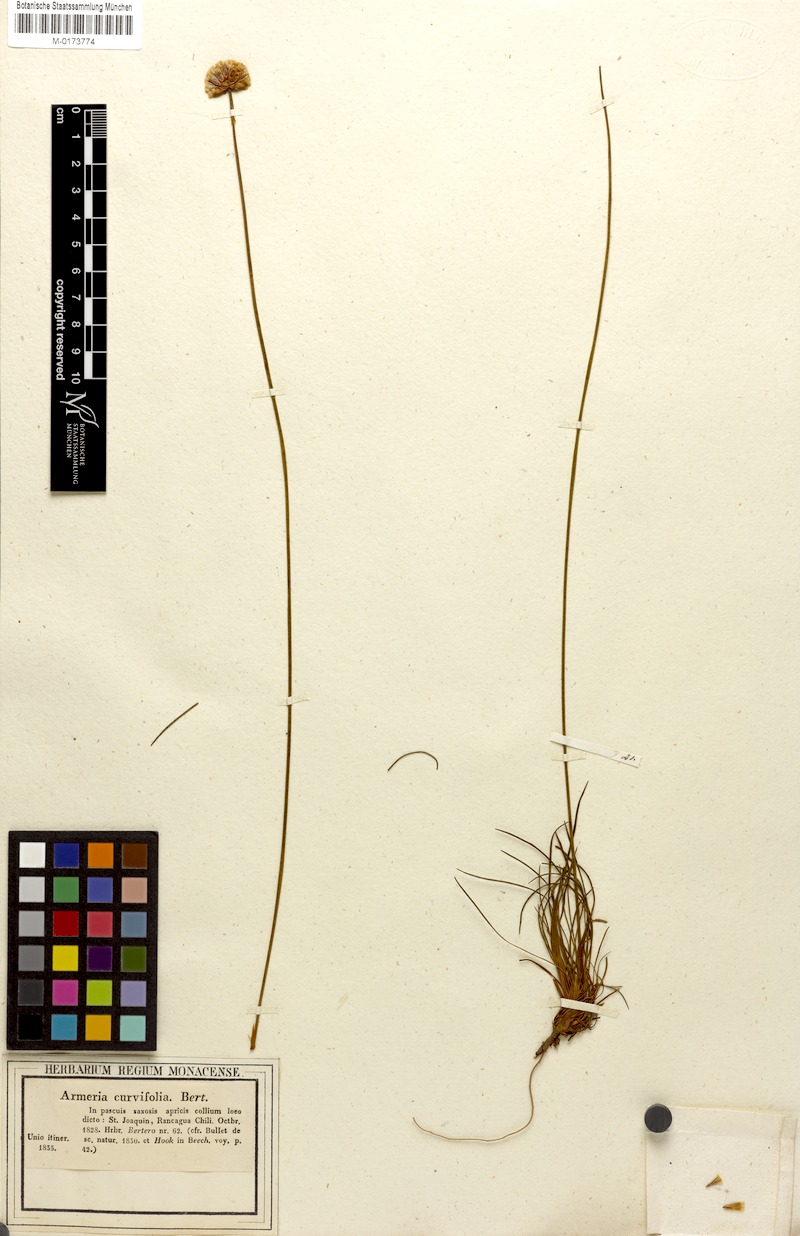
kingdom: Plantae
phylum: Tracheophyta
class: Magnoliopsida
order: Caryophyllales
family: Plumbaginaceae
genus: Armeria
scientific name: Armeria curvifolia
